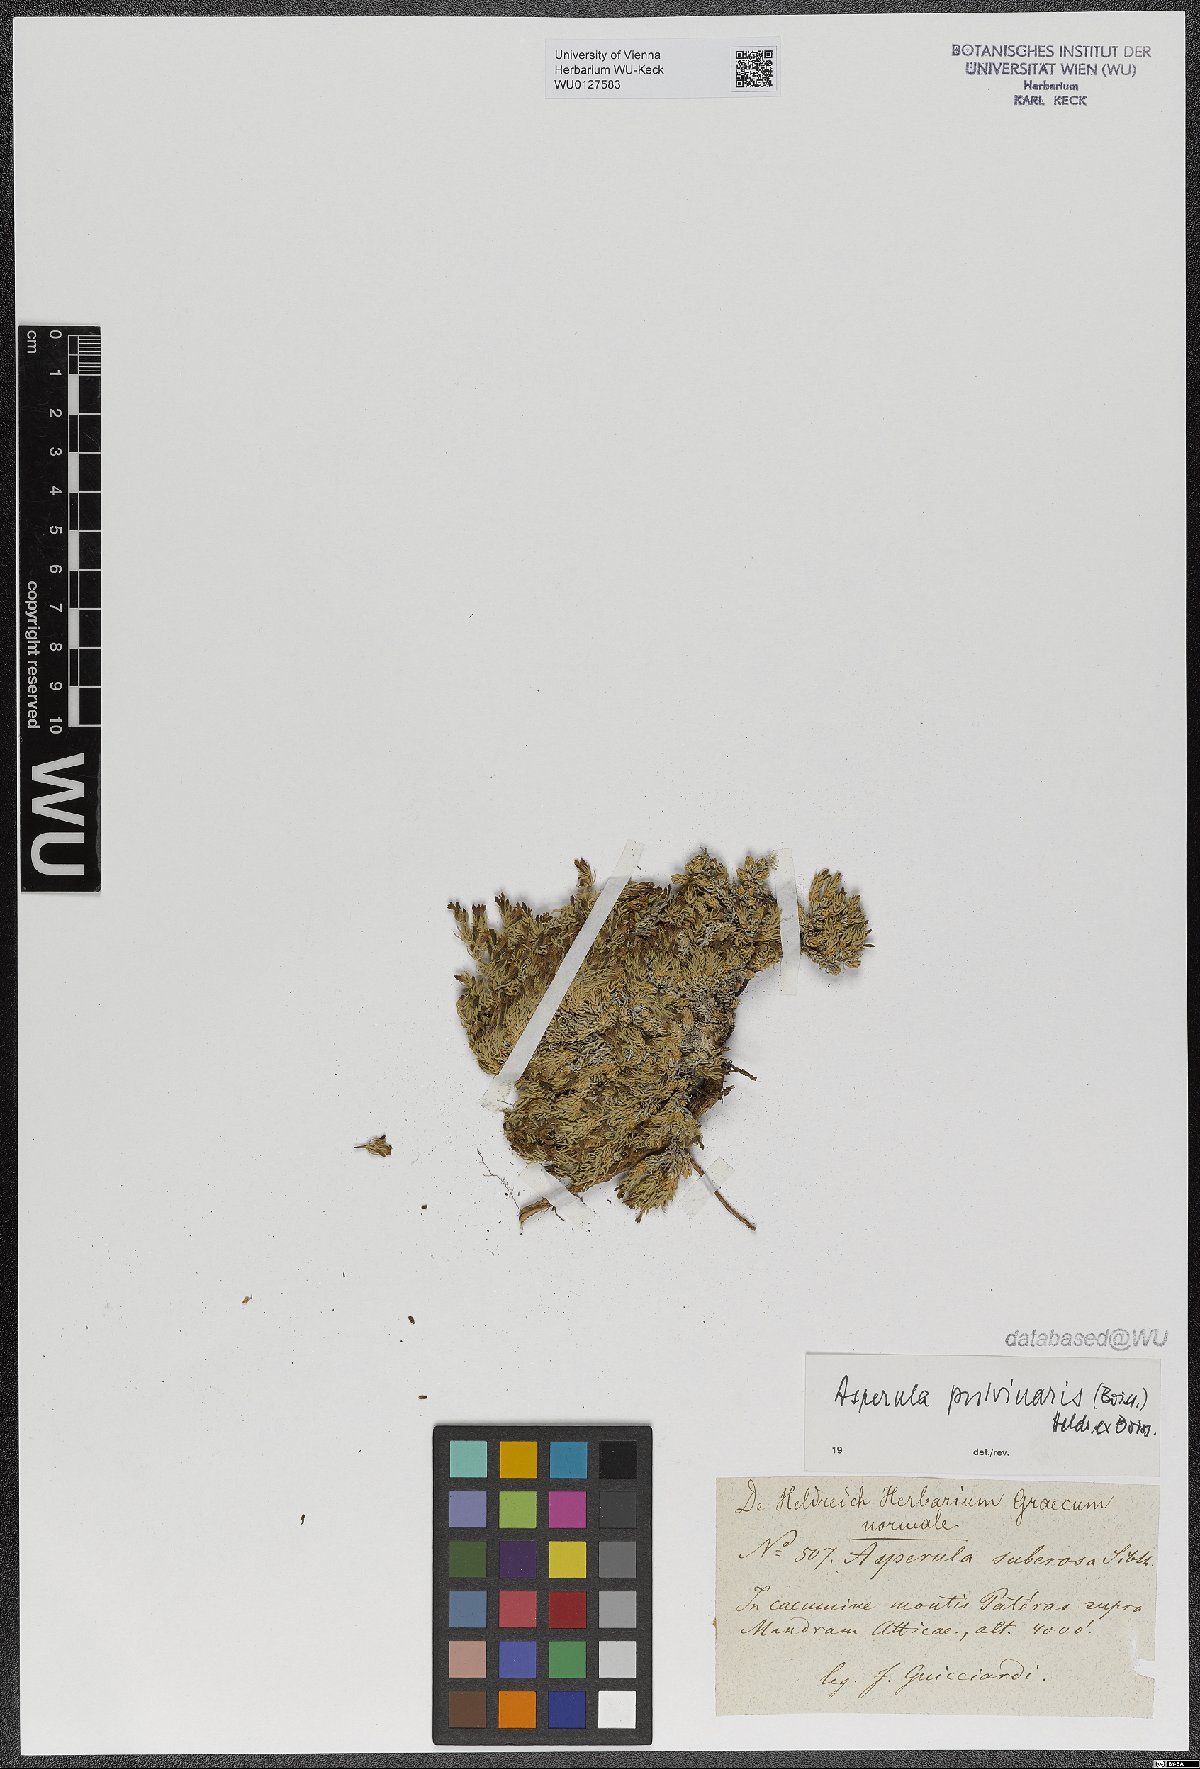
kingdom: Plantae
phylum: Tracheophyta
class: Magnoliopsida
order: Gentianales
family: Rubiaceae
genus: Cynanchica
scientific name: Cynanchica pulvinaris
